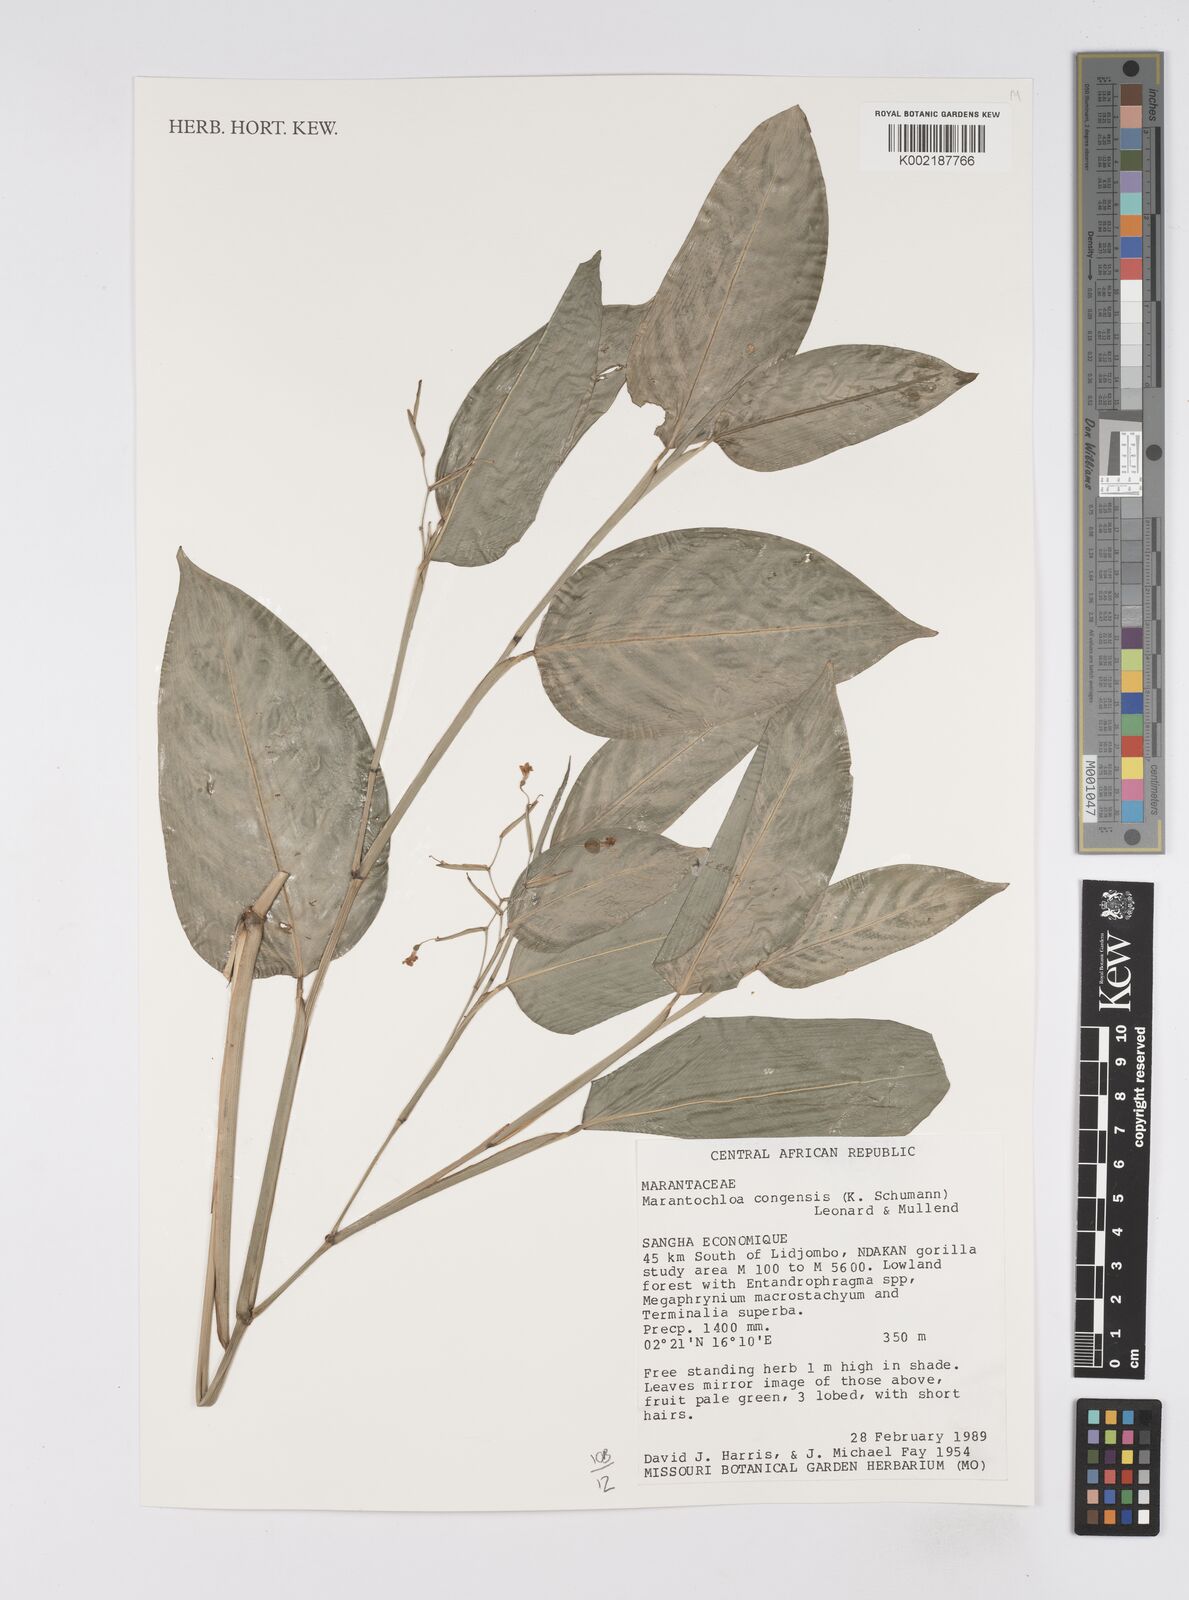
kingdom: Plantae
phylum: Tracheophyta
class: Liliopsida
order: Zingiberales
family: Marantaceae
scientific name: Marantaceae
